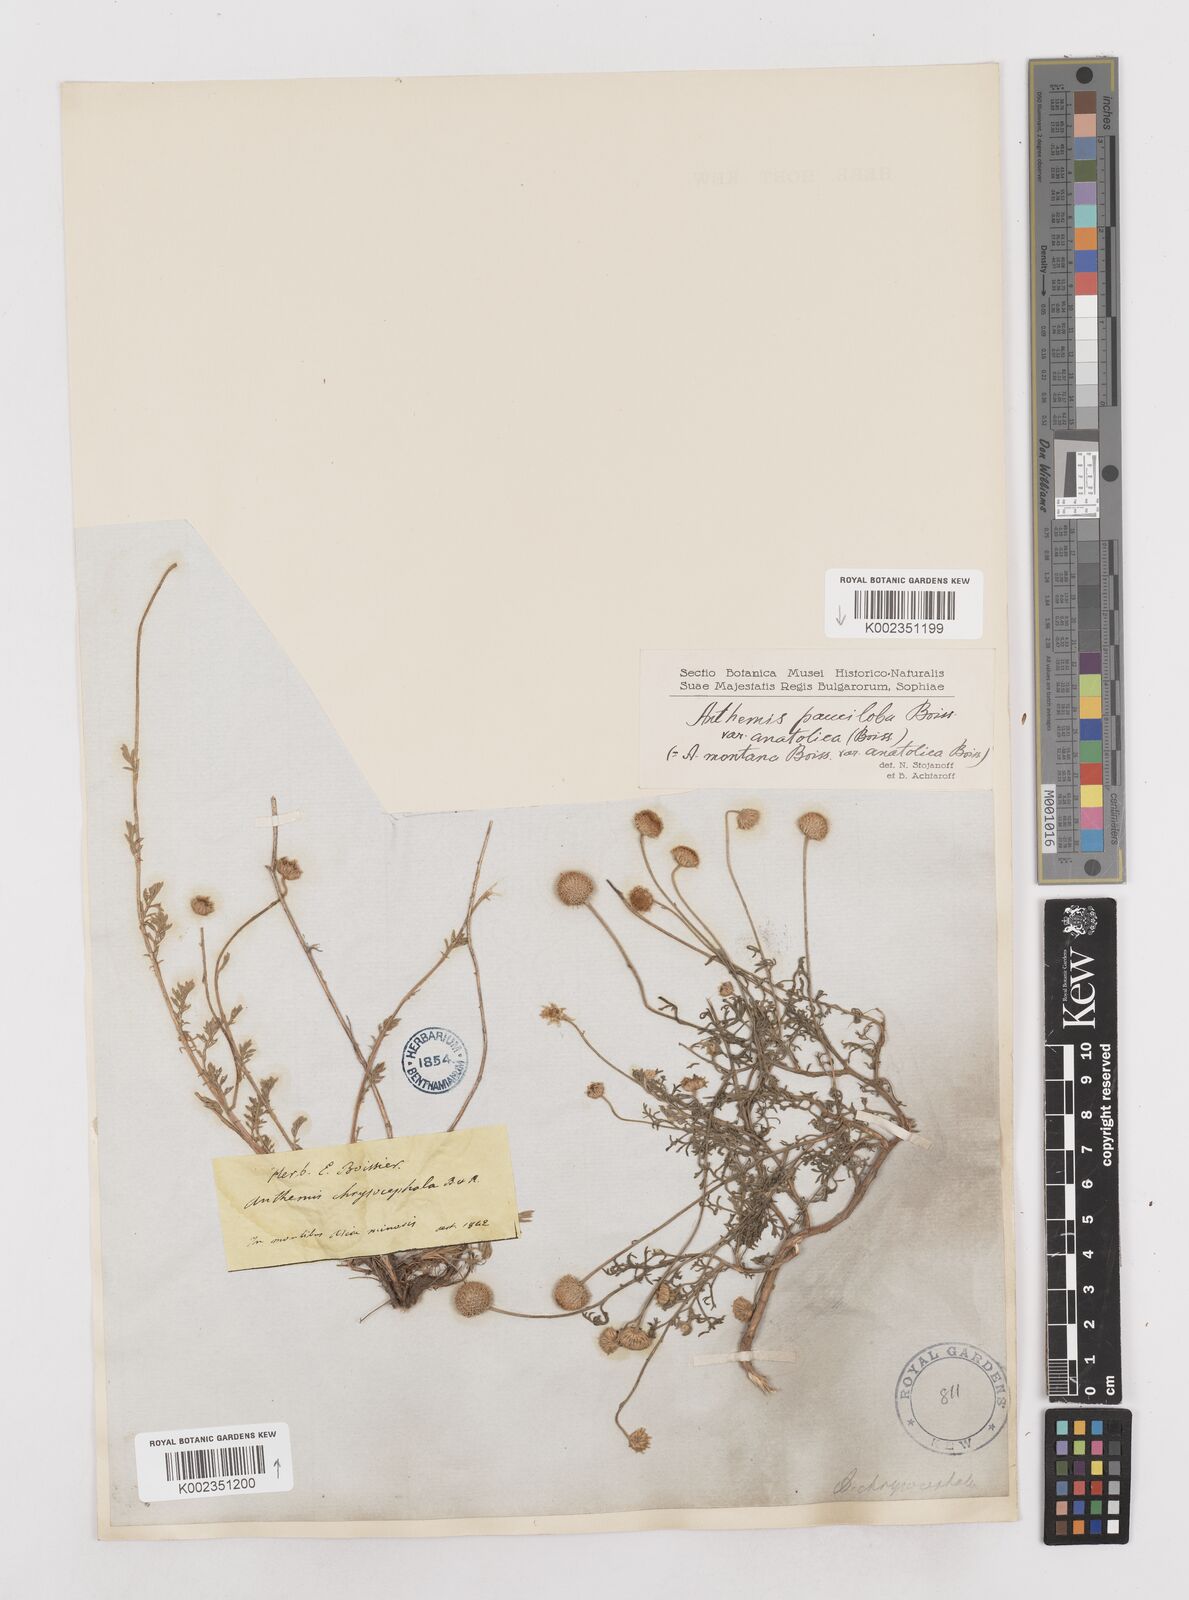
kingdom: Plantae
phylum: Tracheophyta
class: Magnoliopsida
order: Asterales
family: Asteraceae
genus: Anthemis
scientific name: Anthemis cretica
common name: Mountain dog-daisy
